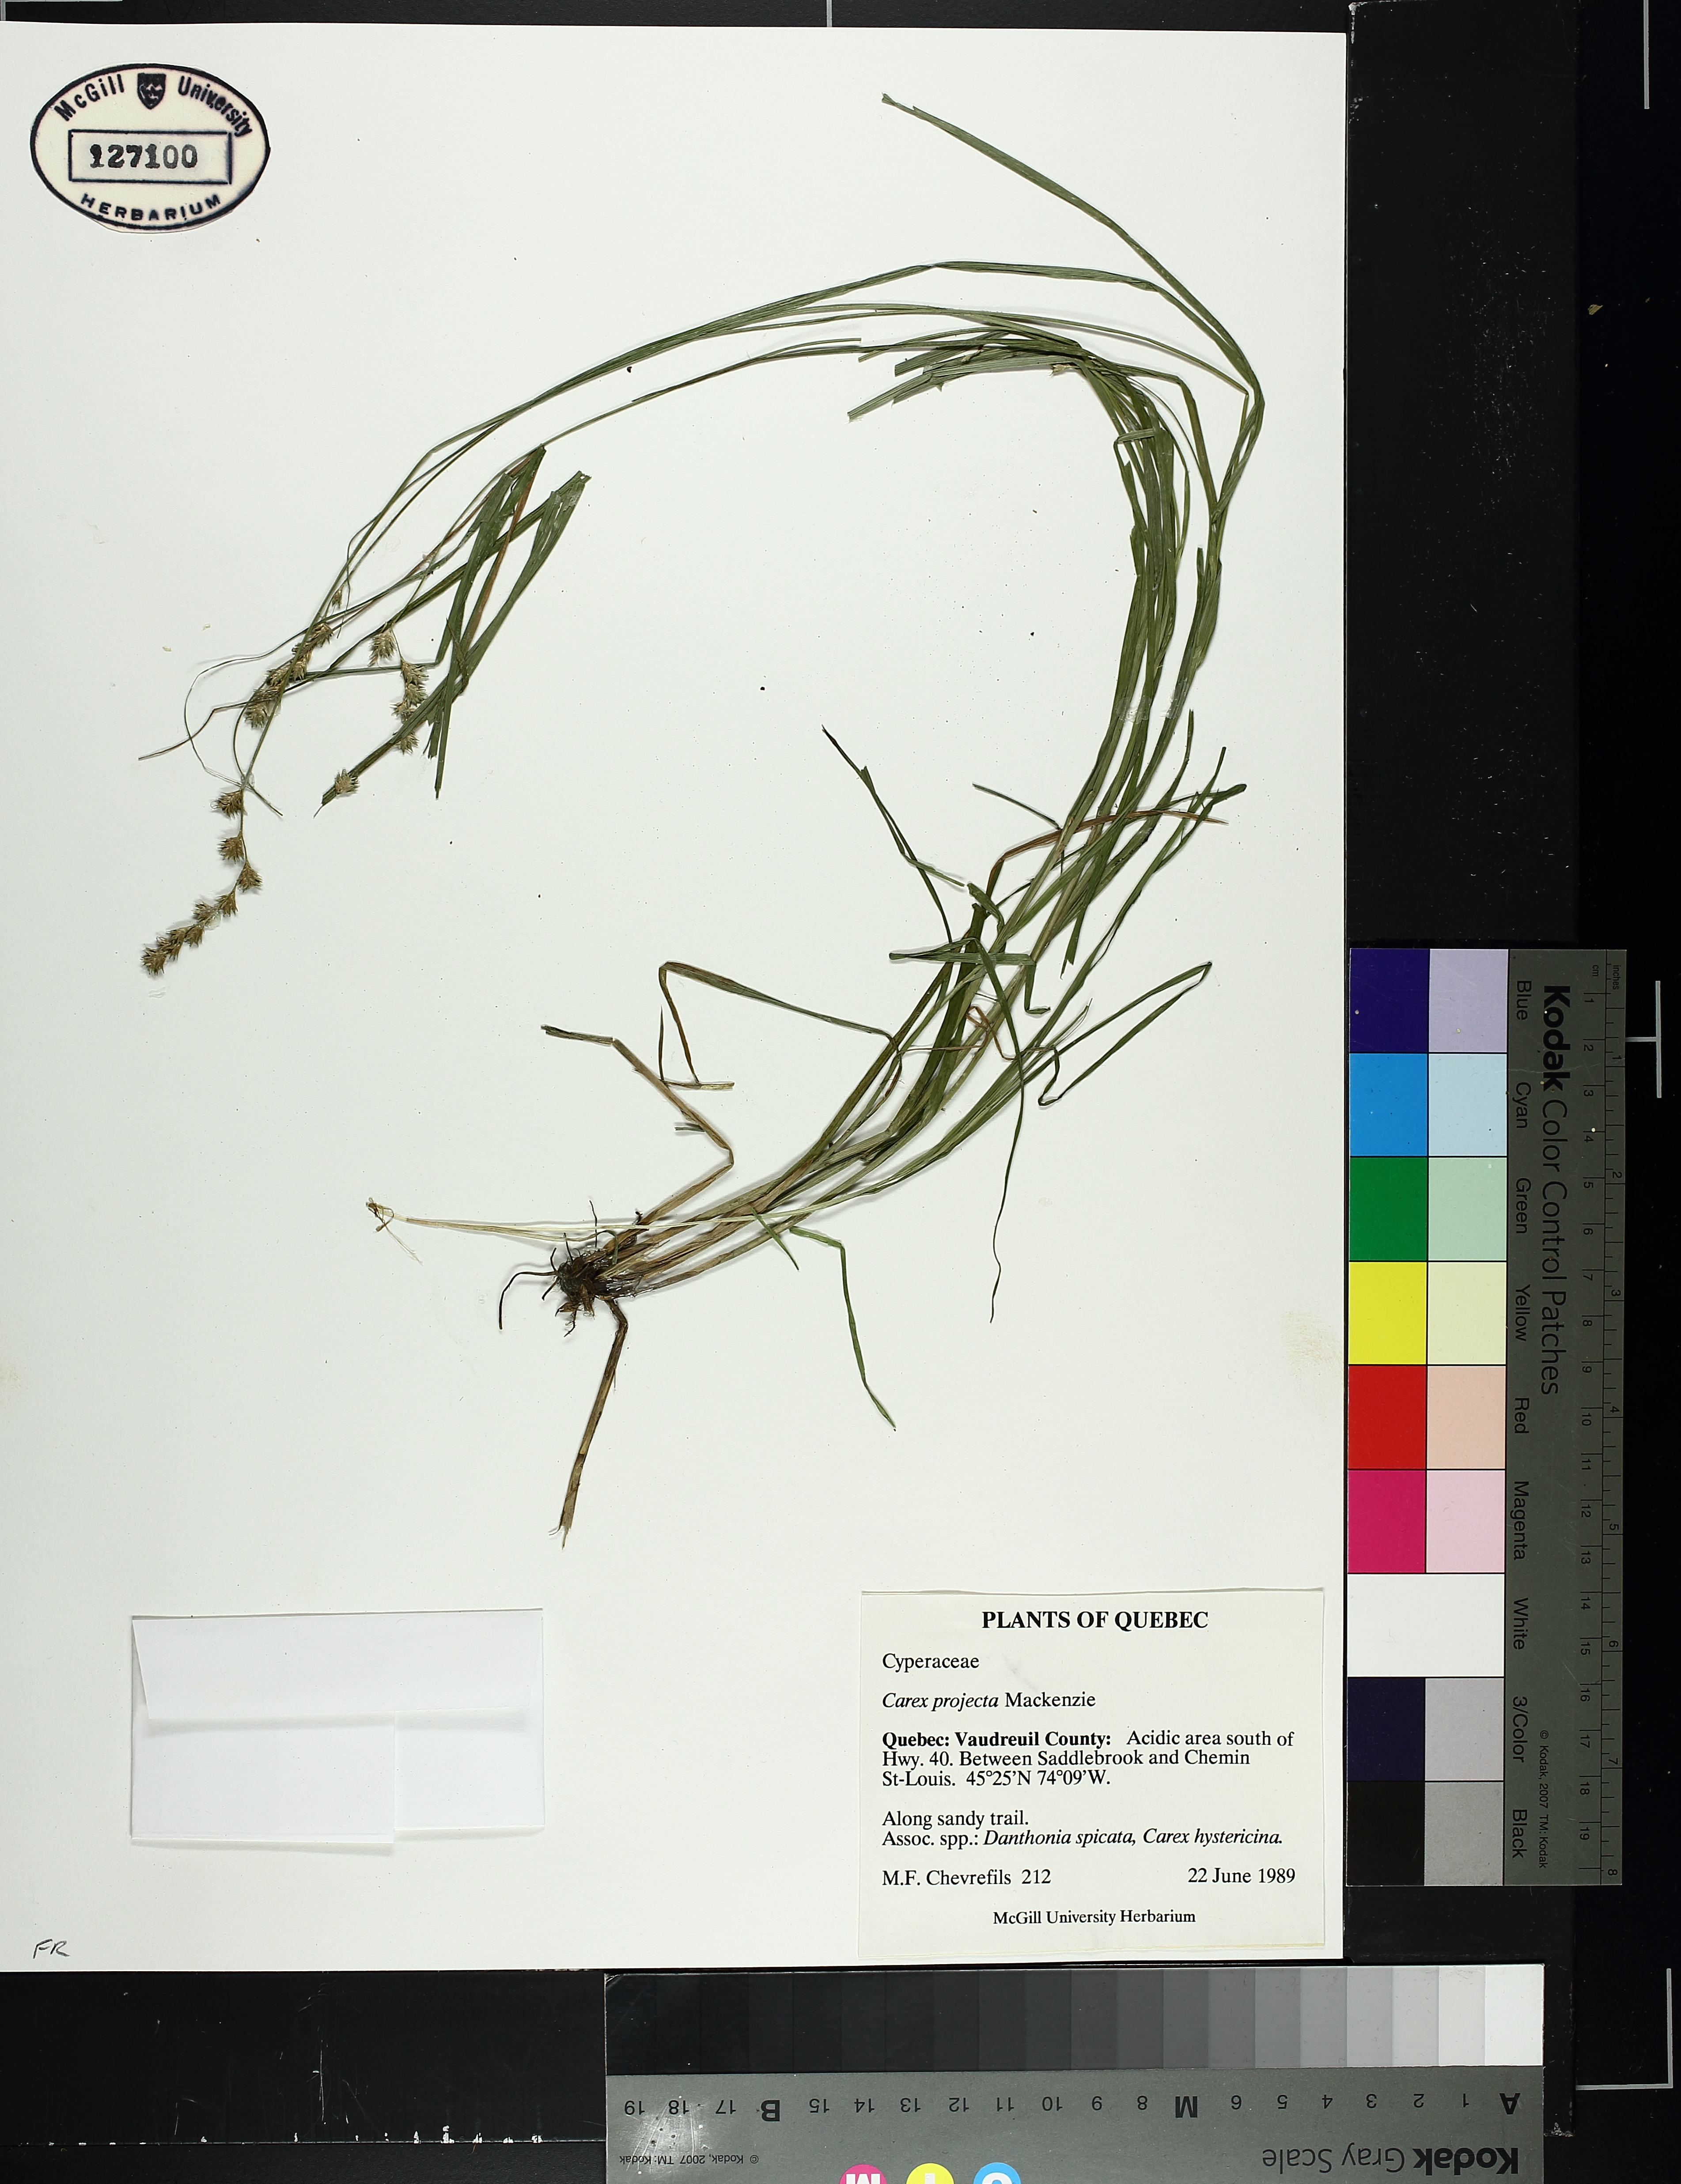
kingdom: Plantae
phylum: Tracheophyta
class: Liliopsida
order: Poales
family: Cyperaceae
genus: Carex
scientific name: Carex projecta
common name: Loose-headed oval sedge
